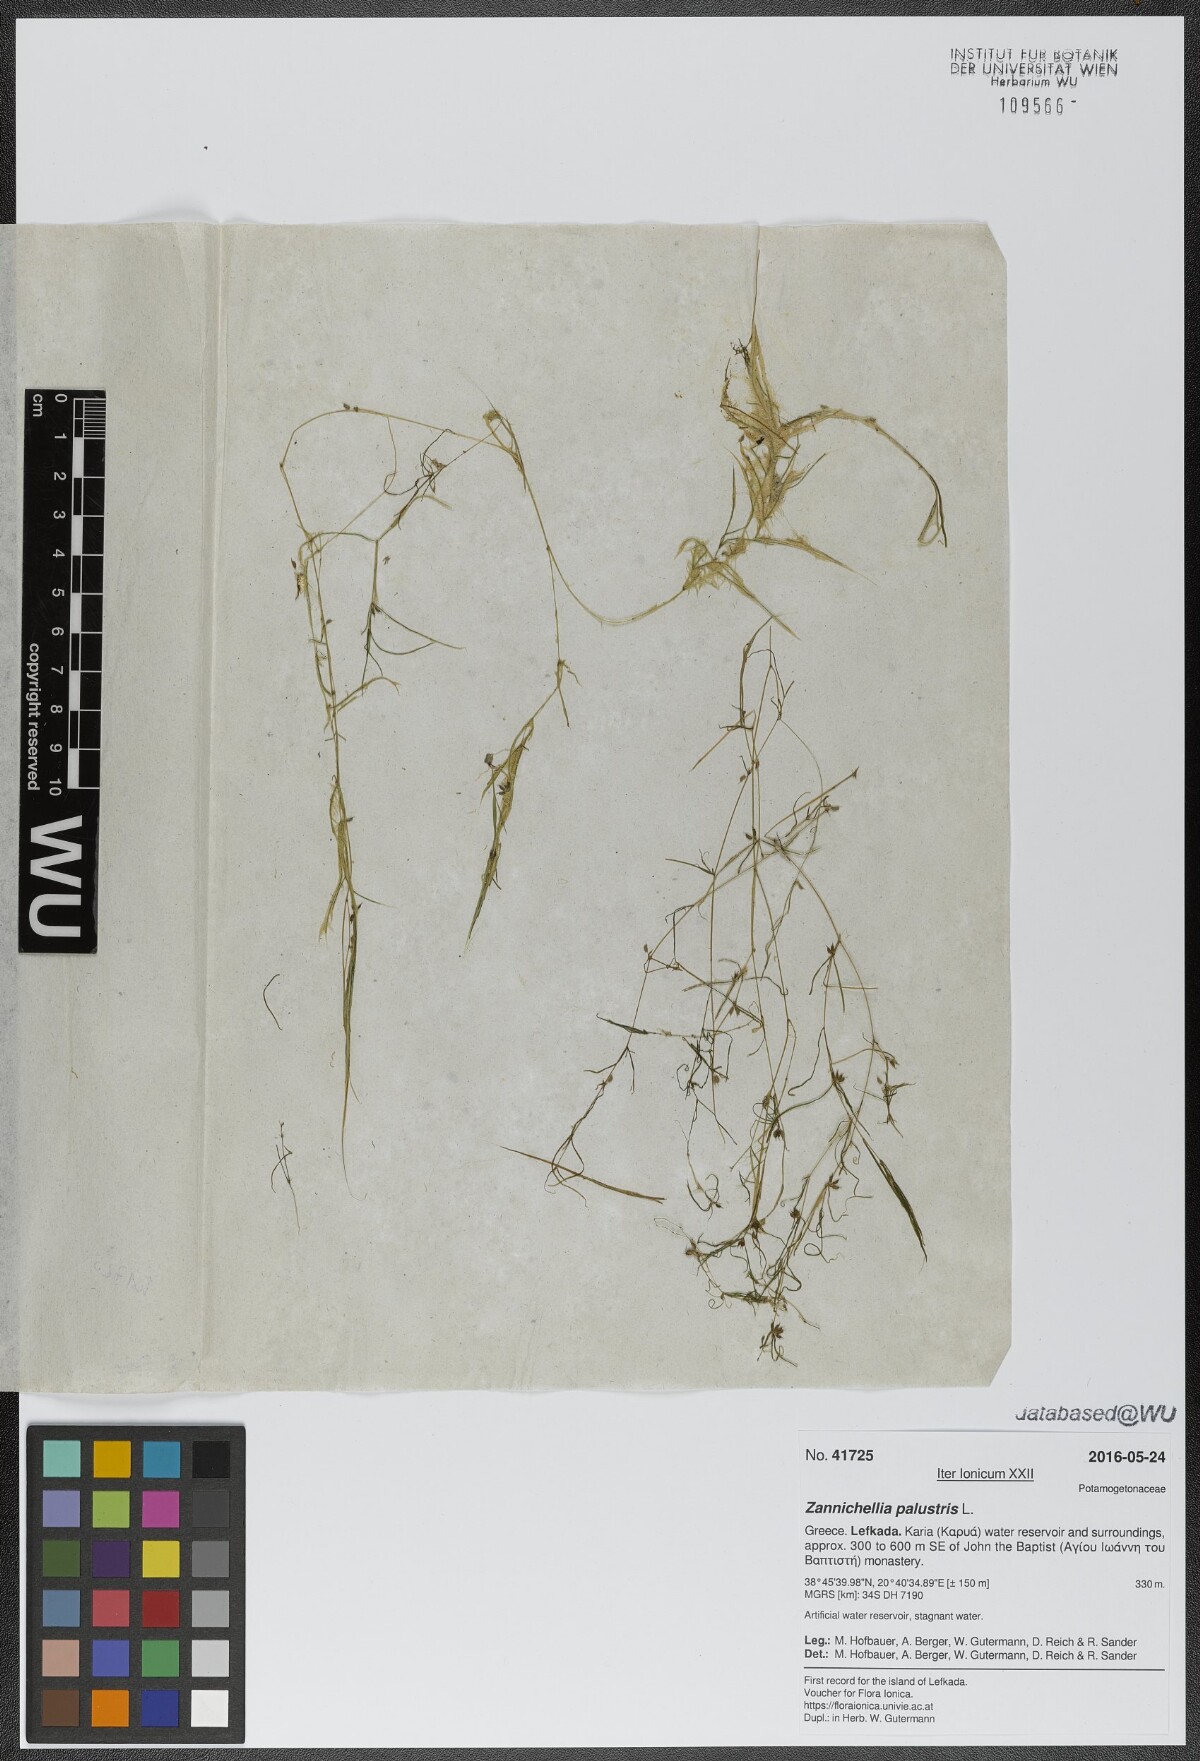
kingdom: Plantae
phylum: Tracheophyta
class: Liliopsida
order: Alismatales
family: Potamogetonaceae
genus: Zannichellia
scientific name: Zannichellia palustris
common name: Horned pondweed
